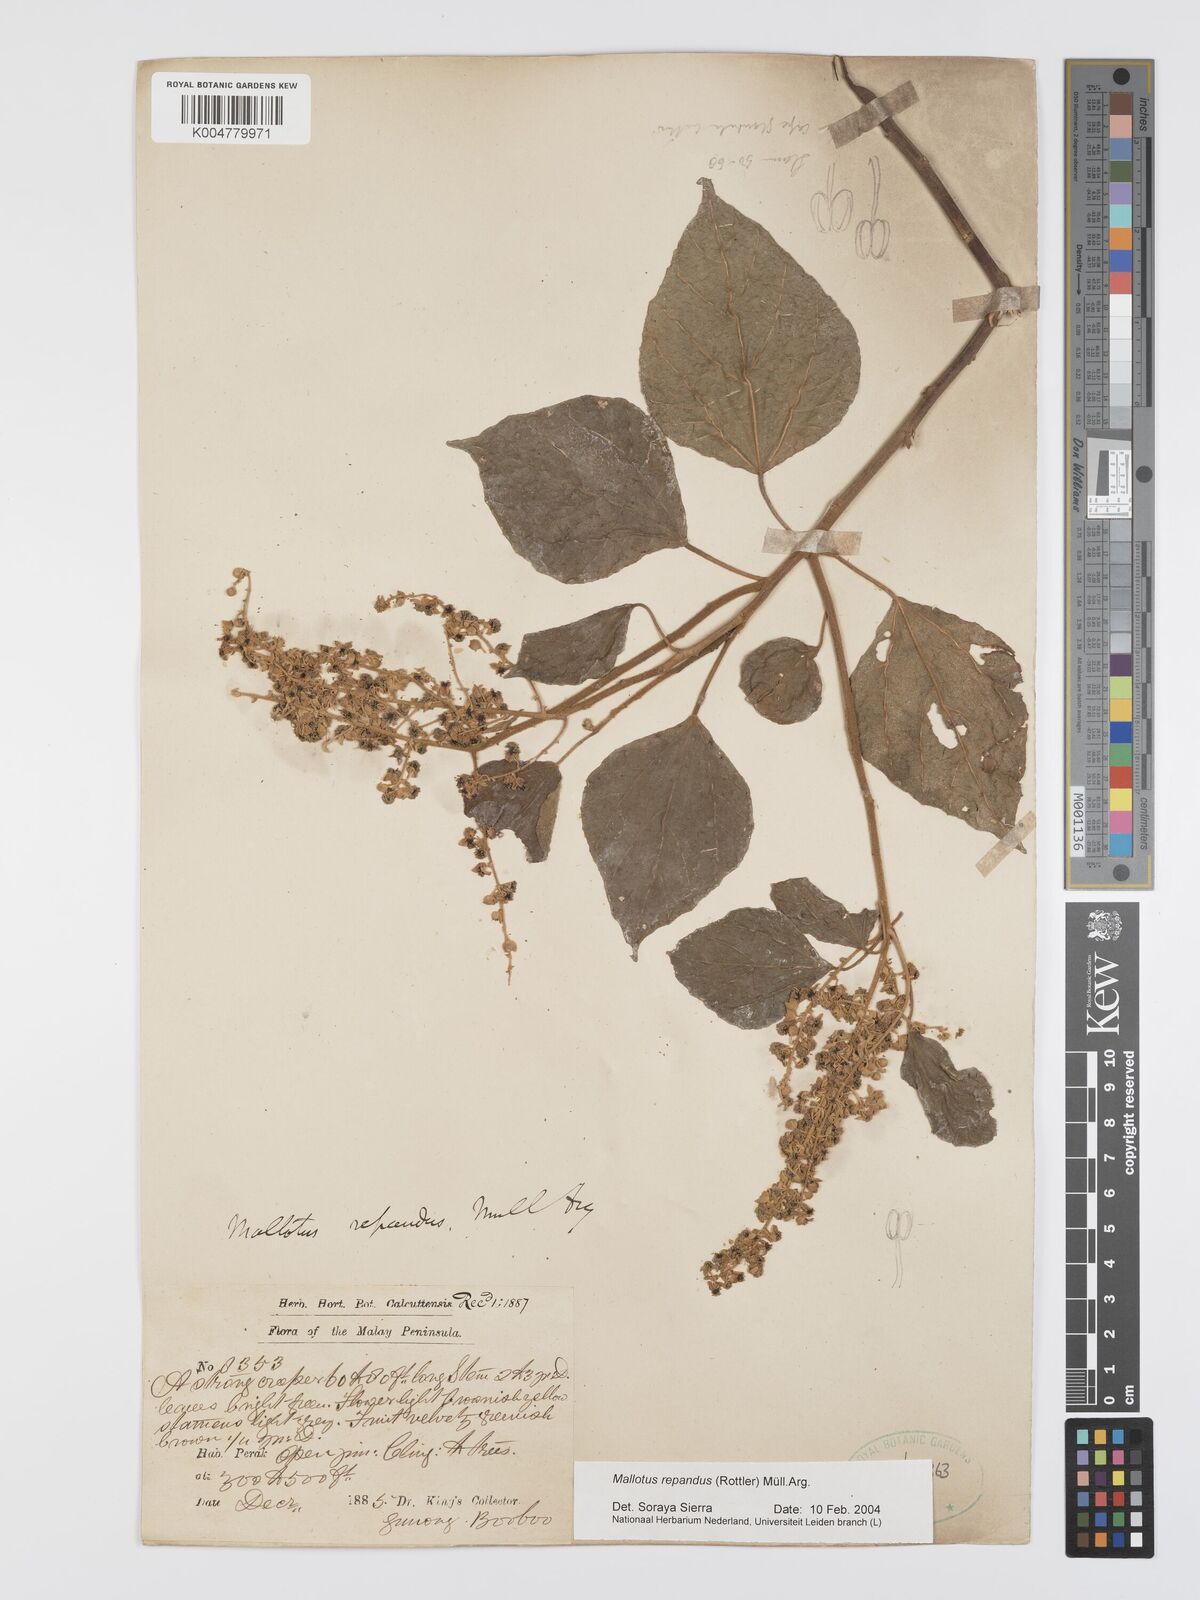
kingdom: Plantae
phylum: Tracheophyta
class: Magnoliopsida
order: Malpighiales
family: Euphorbiaceae
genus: Mallotus
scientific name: Mallotus repandus
